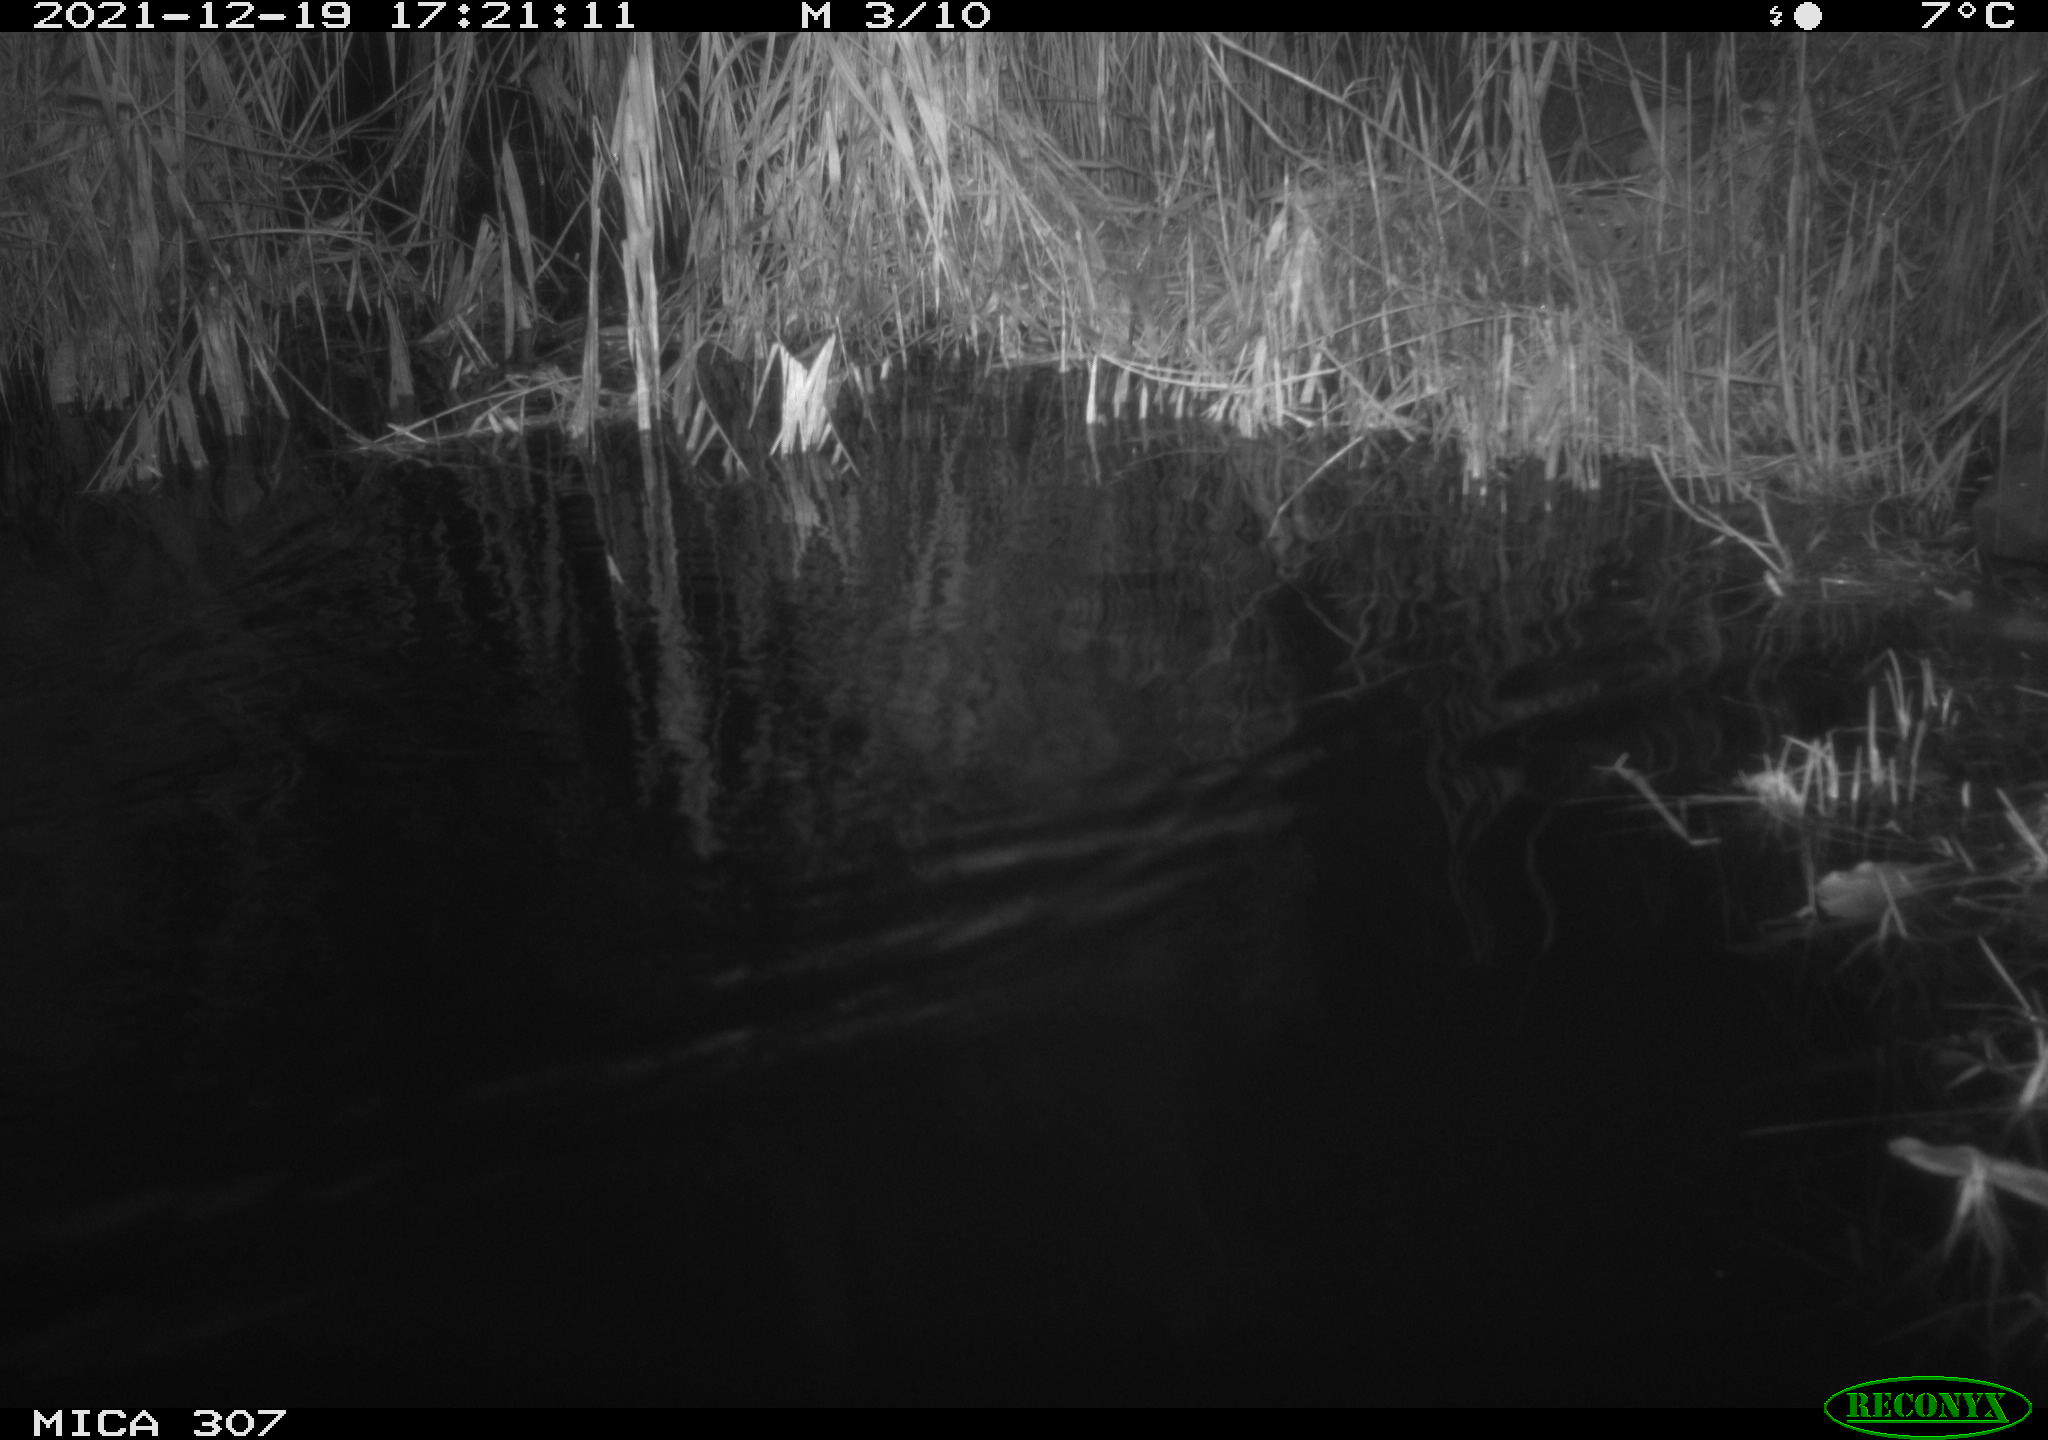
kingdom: Animalia
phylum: Chordata
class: Mammalia
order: Rodentia
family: Muridae
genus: Rattus
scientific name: Rattus norvegicus
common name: Brown rat
